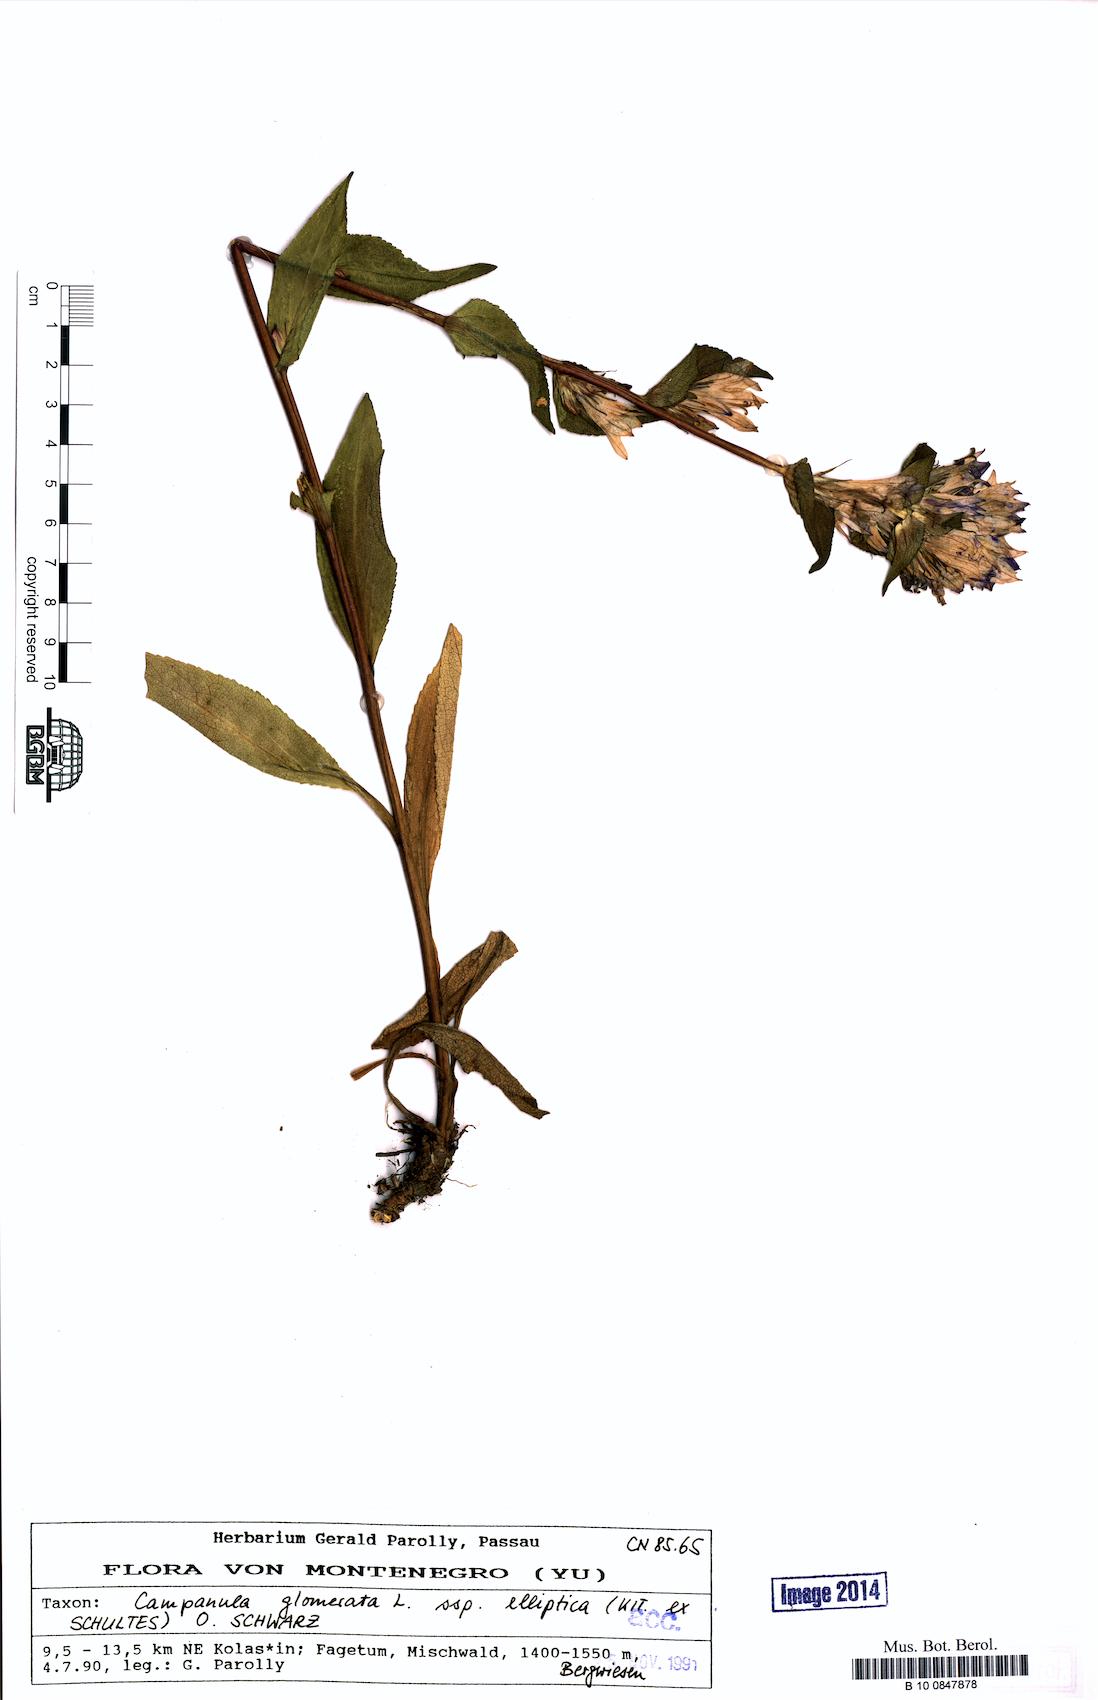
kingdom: Plantae
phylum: Tracheophyta
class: Magnoliopsida
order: Asterales
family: Campanulaceae
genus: Campanula
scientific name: Campanula glomerata
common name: Clustered bellflower
